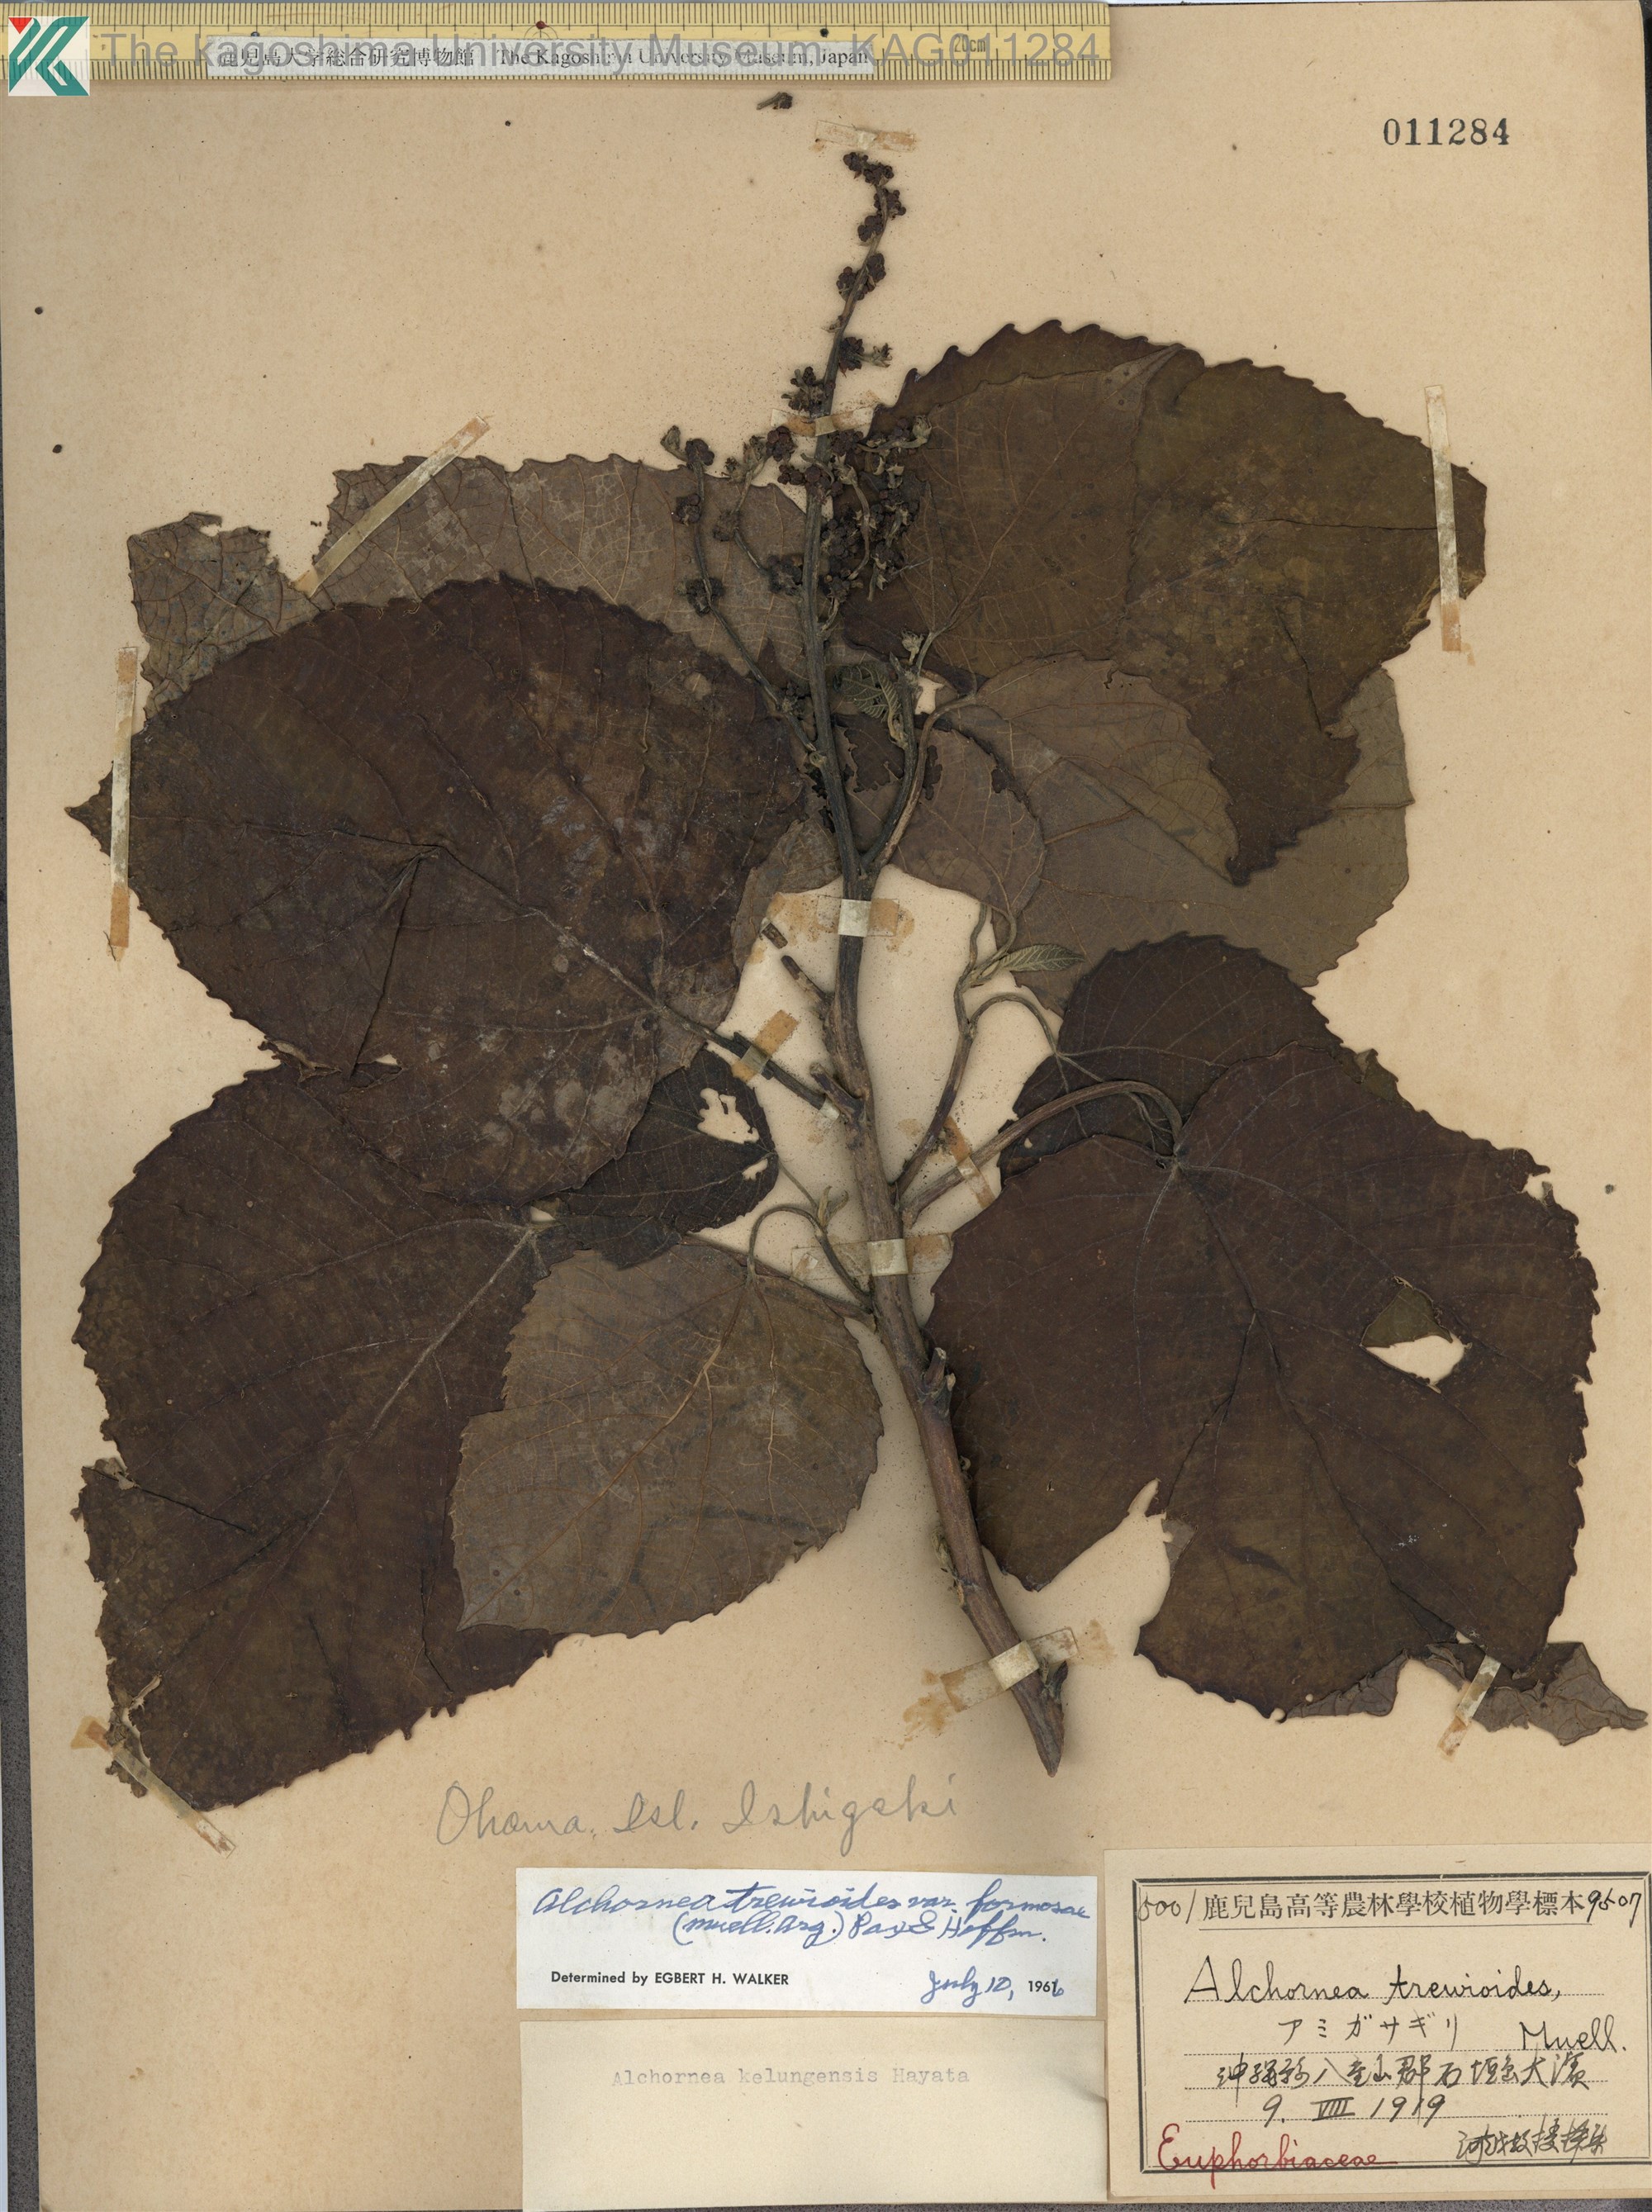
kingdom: Plantae
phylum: Tracheophyta
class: Magnoliopsida
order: Malpighiales
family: Euphorbiaceae
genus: Alchornea
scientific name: Alchornea liukiuensis
